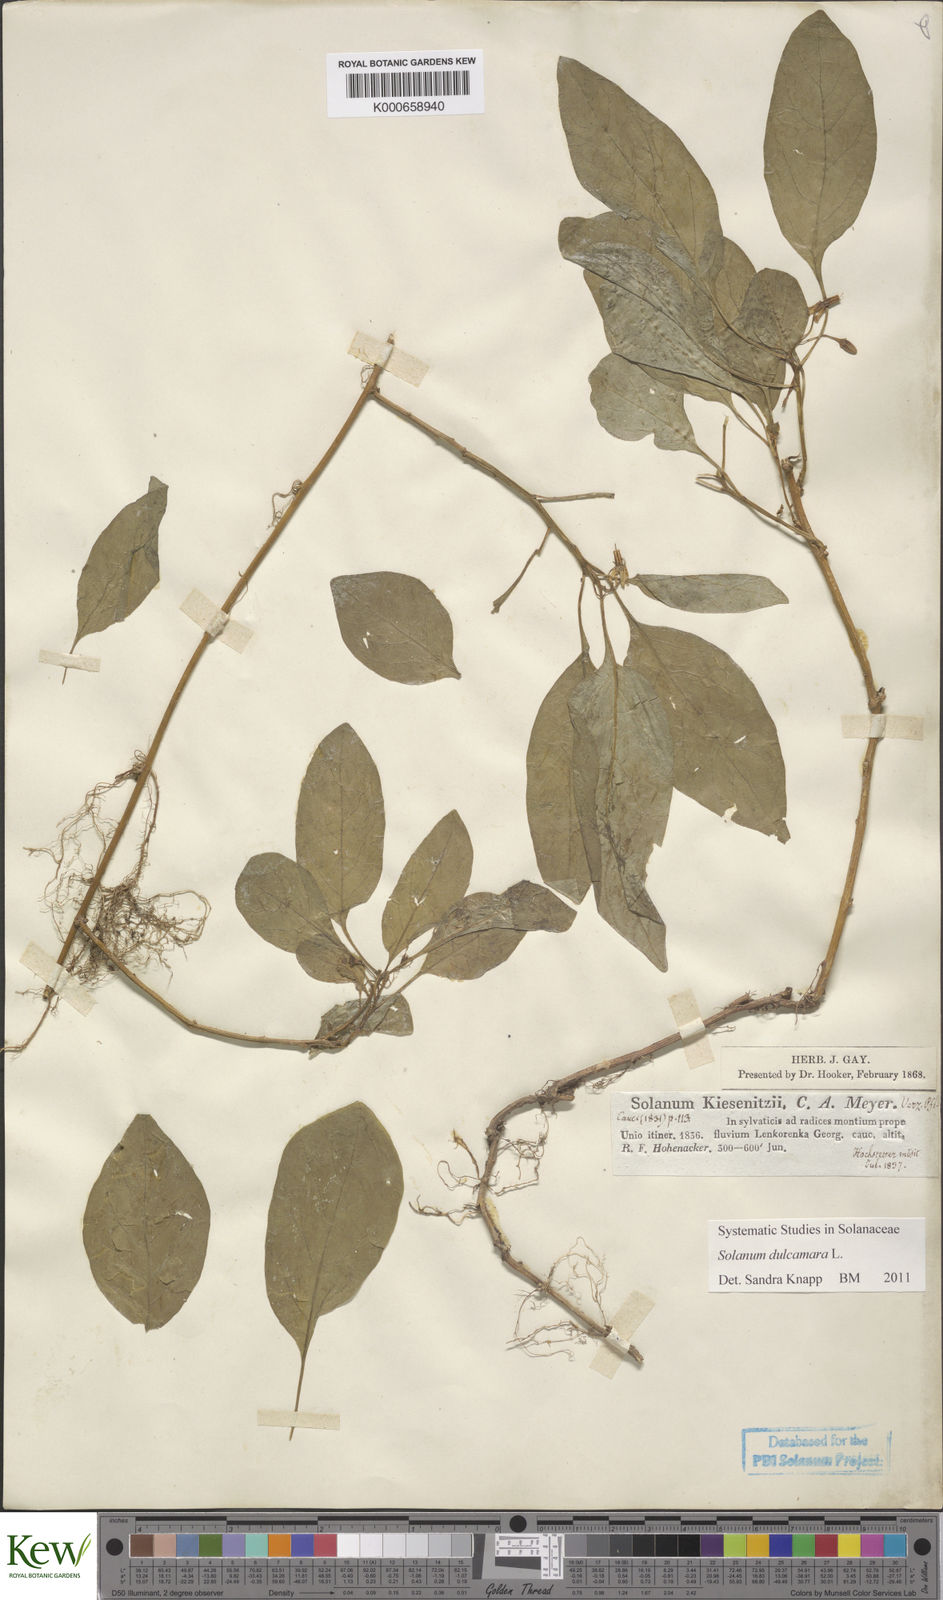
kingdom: Plantae
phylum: Tracheophyta
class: Magnoliopsida
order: Solanales
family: Solanaceae
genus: Solanum
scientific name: Solanum dulcamara
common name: Climbing nightshade
